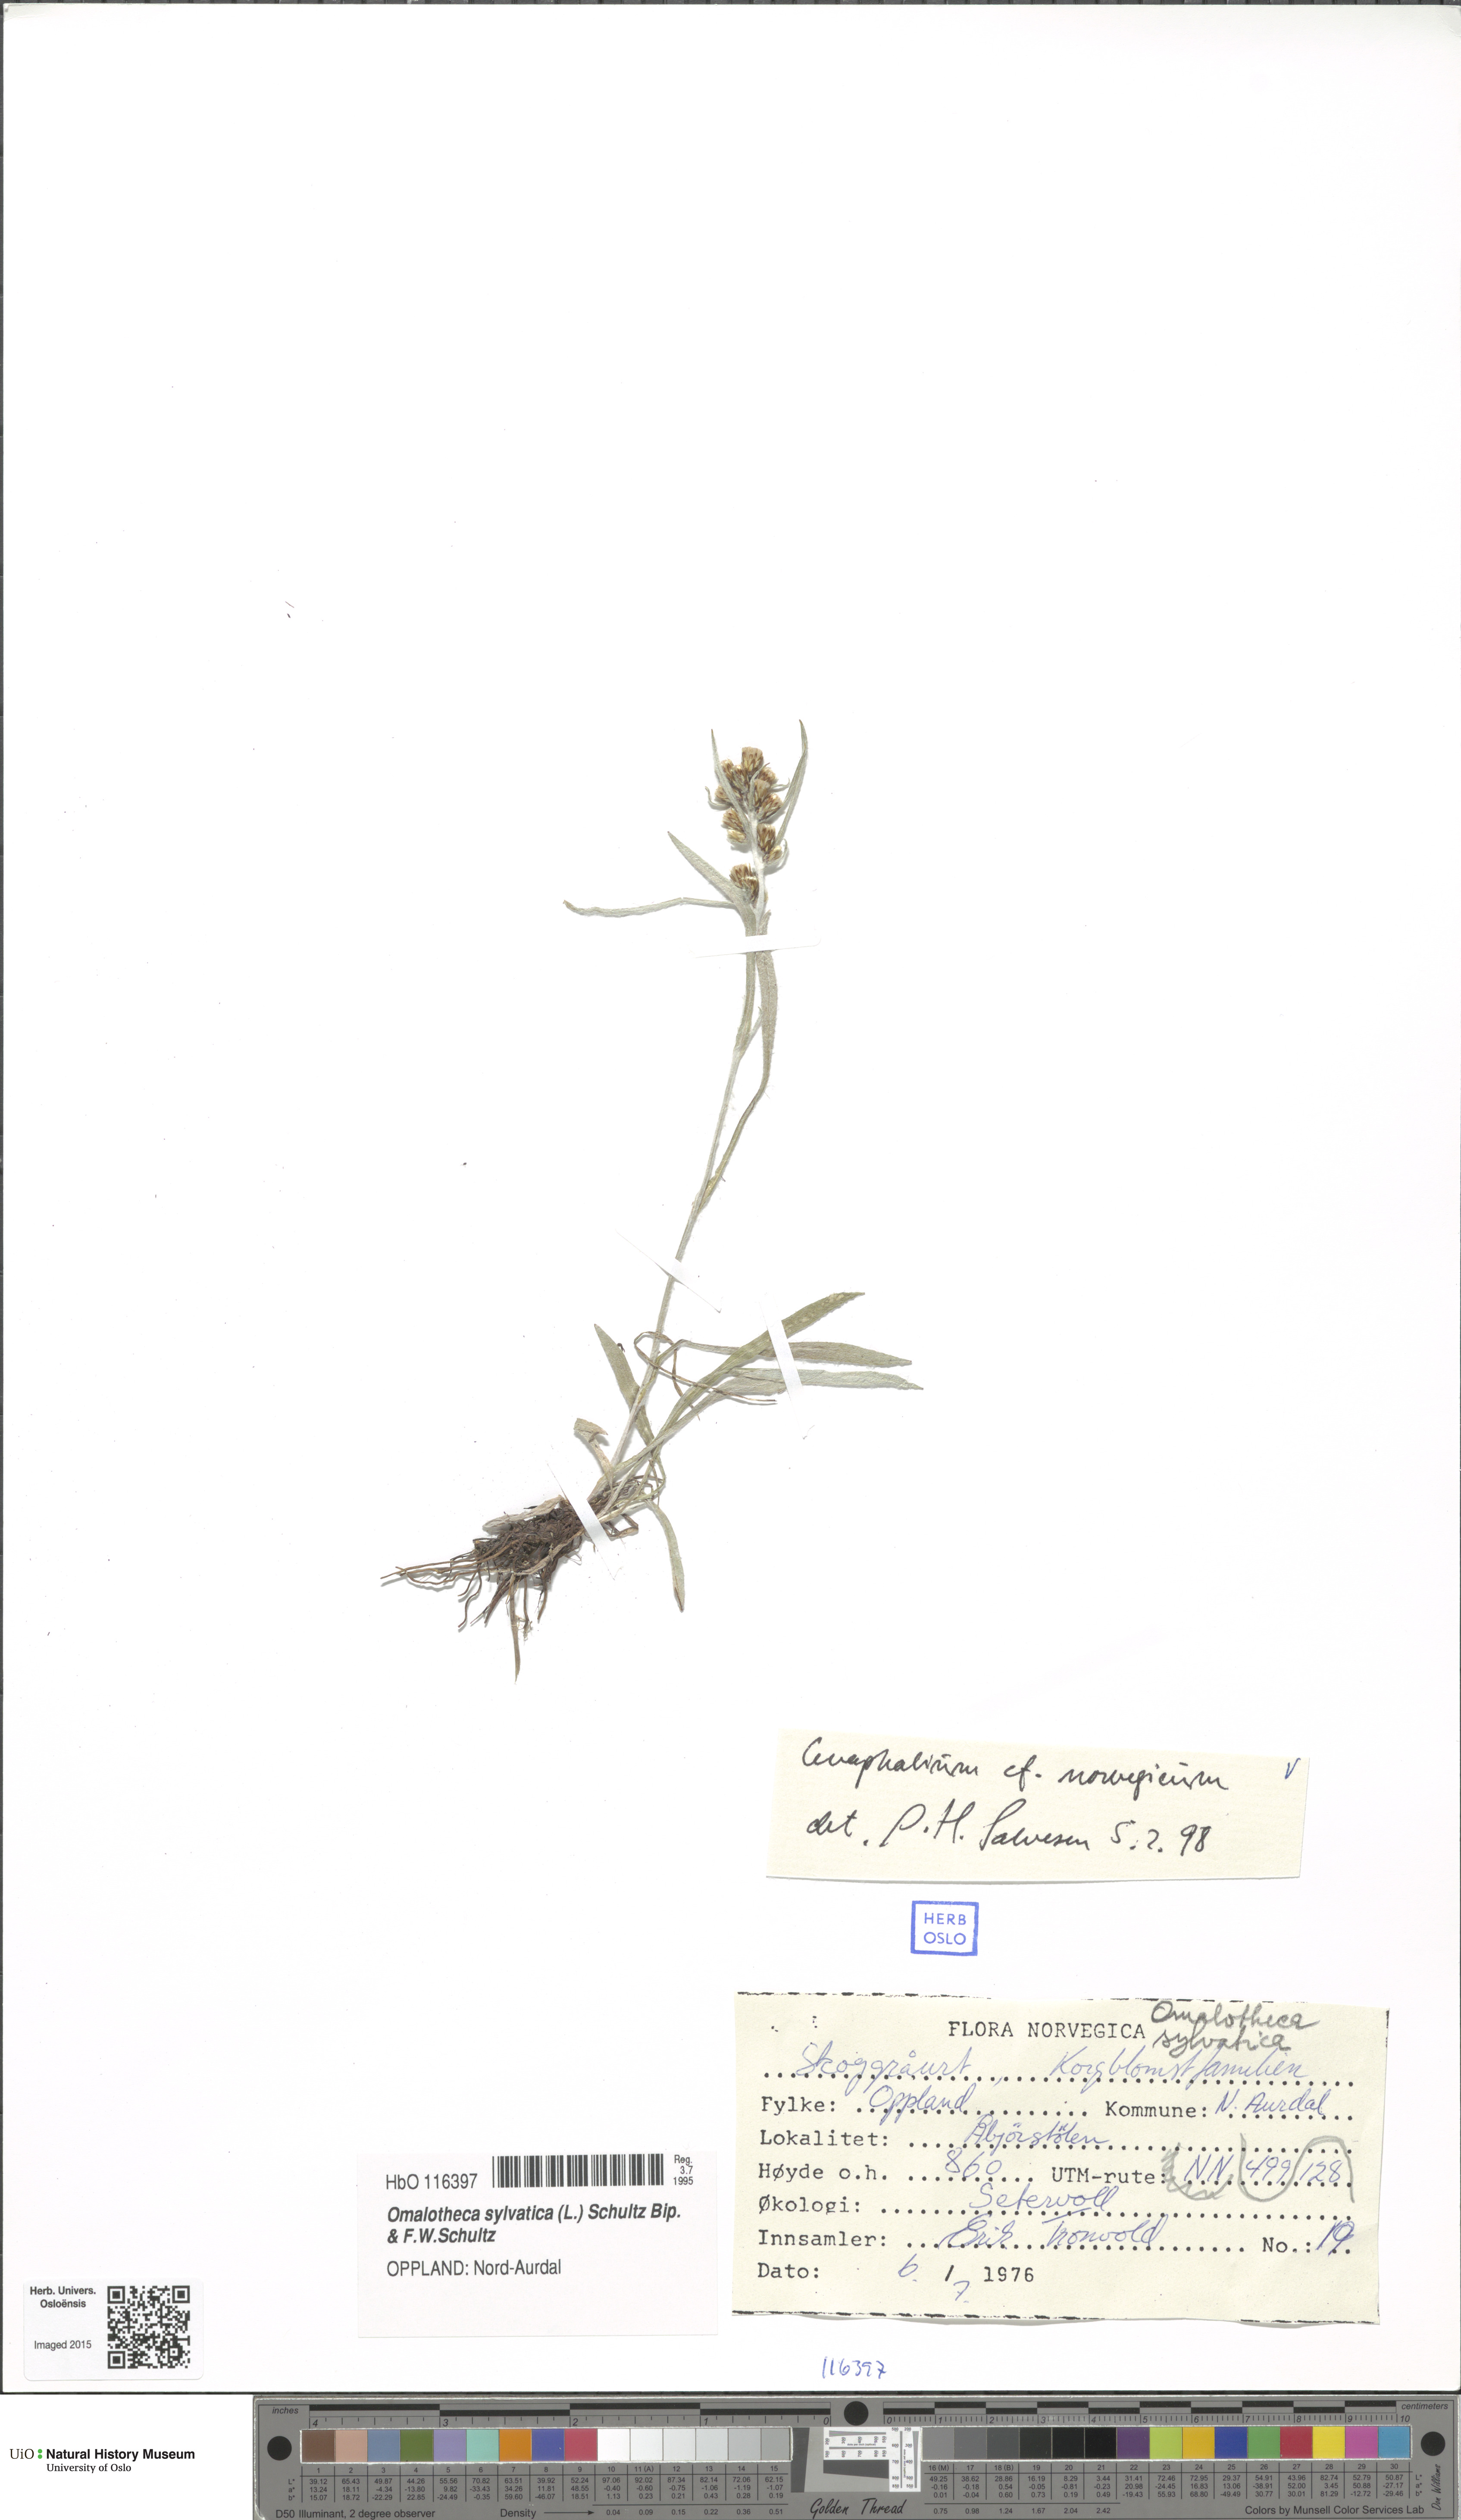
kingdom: Plantae
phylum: Tracheophyta
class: Magnoliopsida
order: Asterales
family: Asteraceae
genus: Omalotheca
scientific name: Omalotheca norvegica
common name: Norwegian arctic-cudweed
